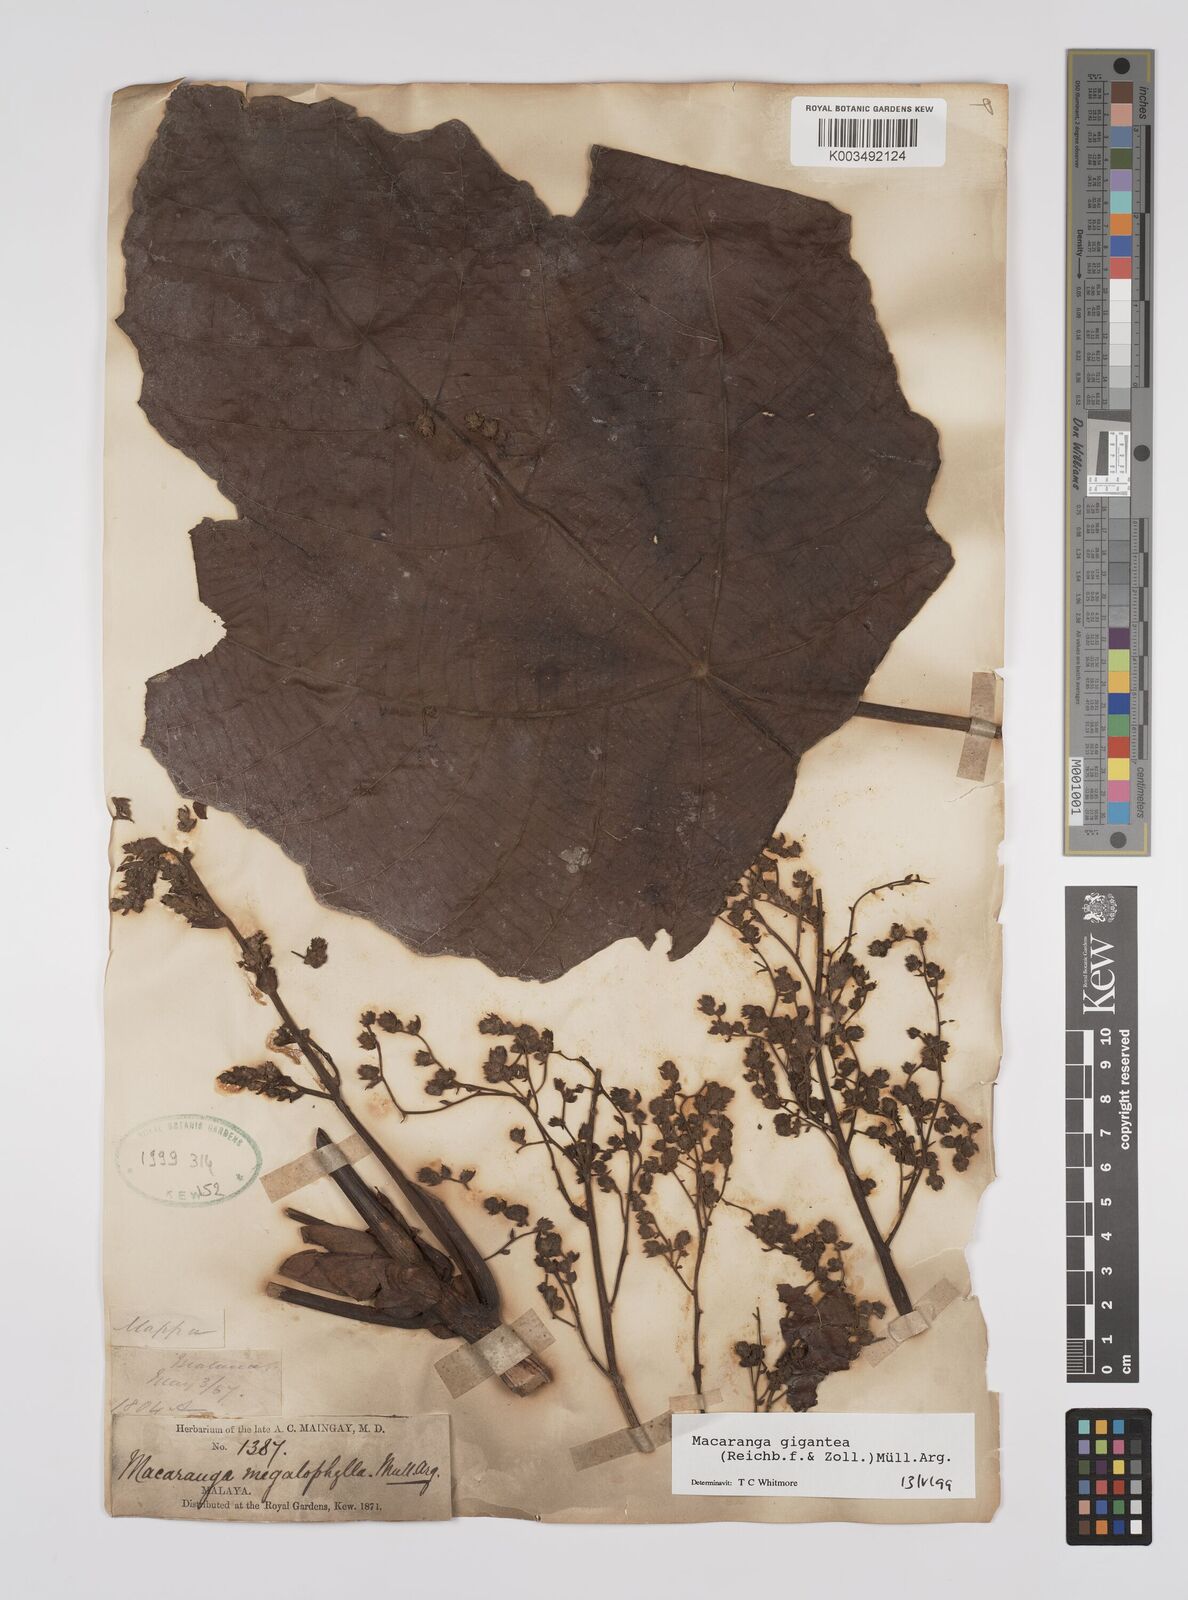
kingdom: Plantae
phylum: Tracheophyta
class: Magnoliopsida
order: Malpighiales
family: Euphorbiaceae
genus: Macaranga
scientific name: Macaranga gigantea
